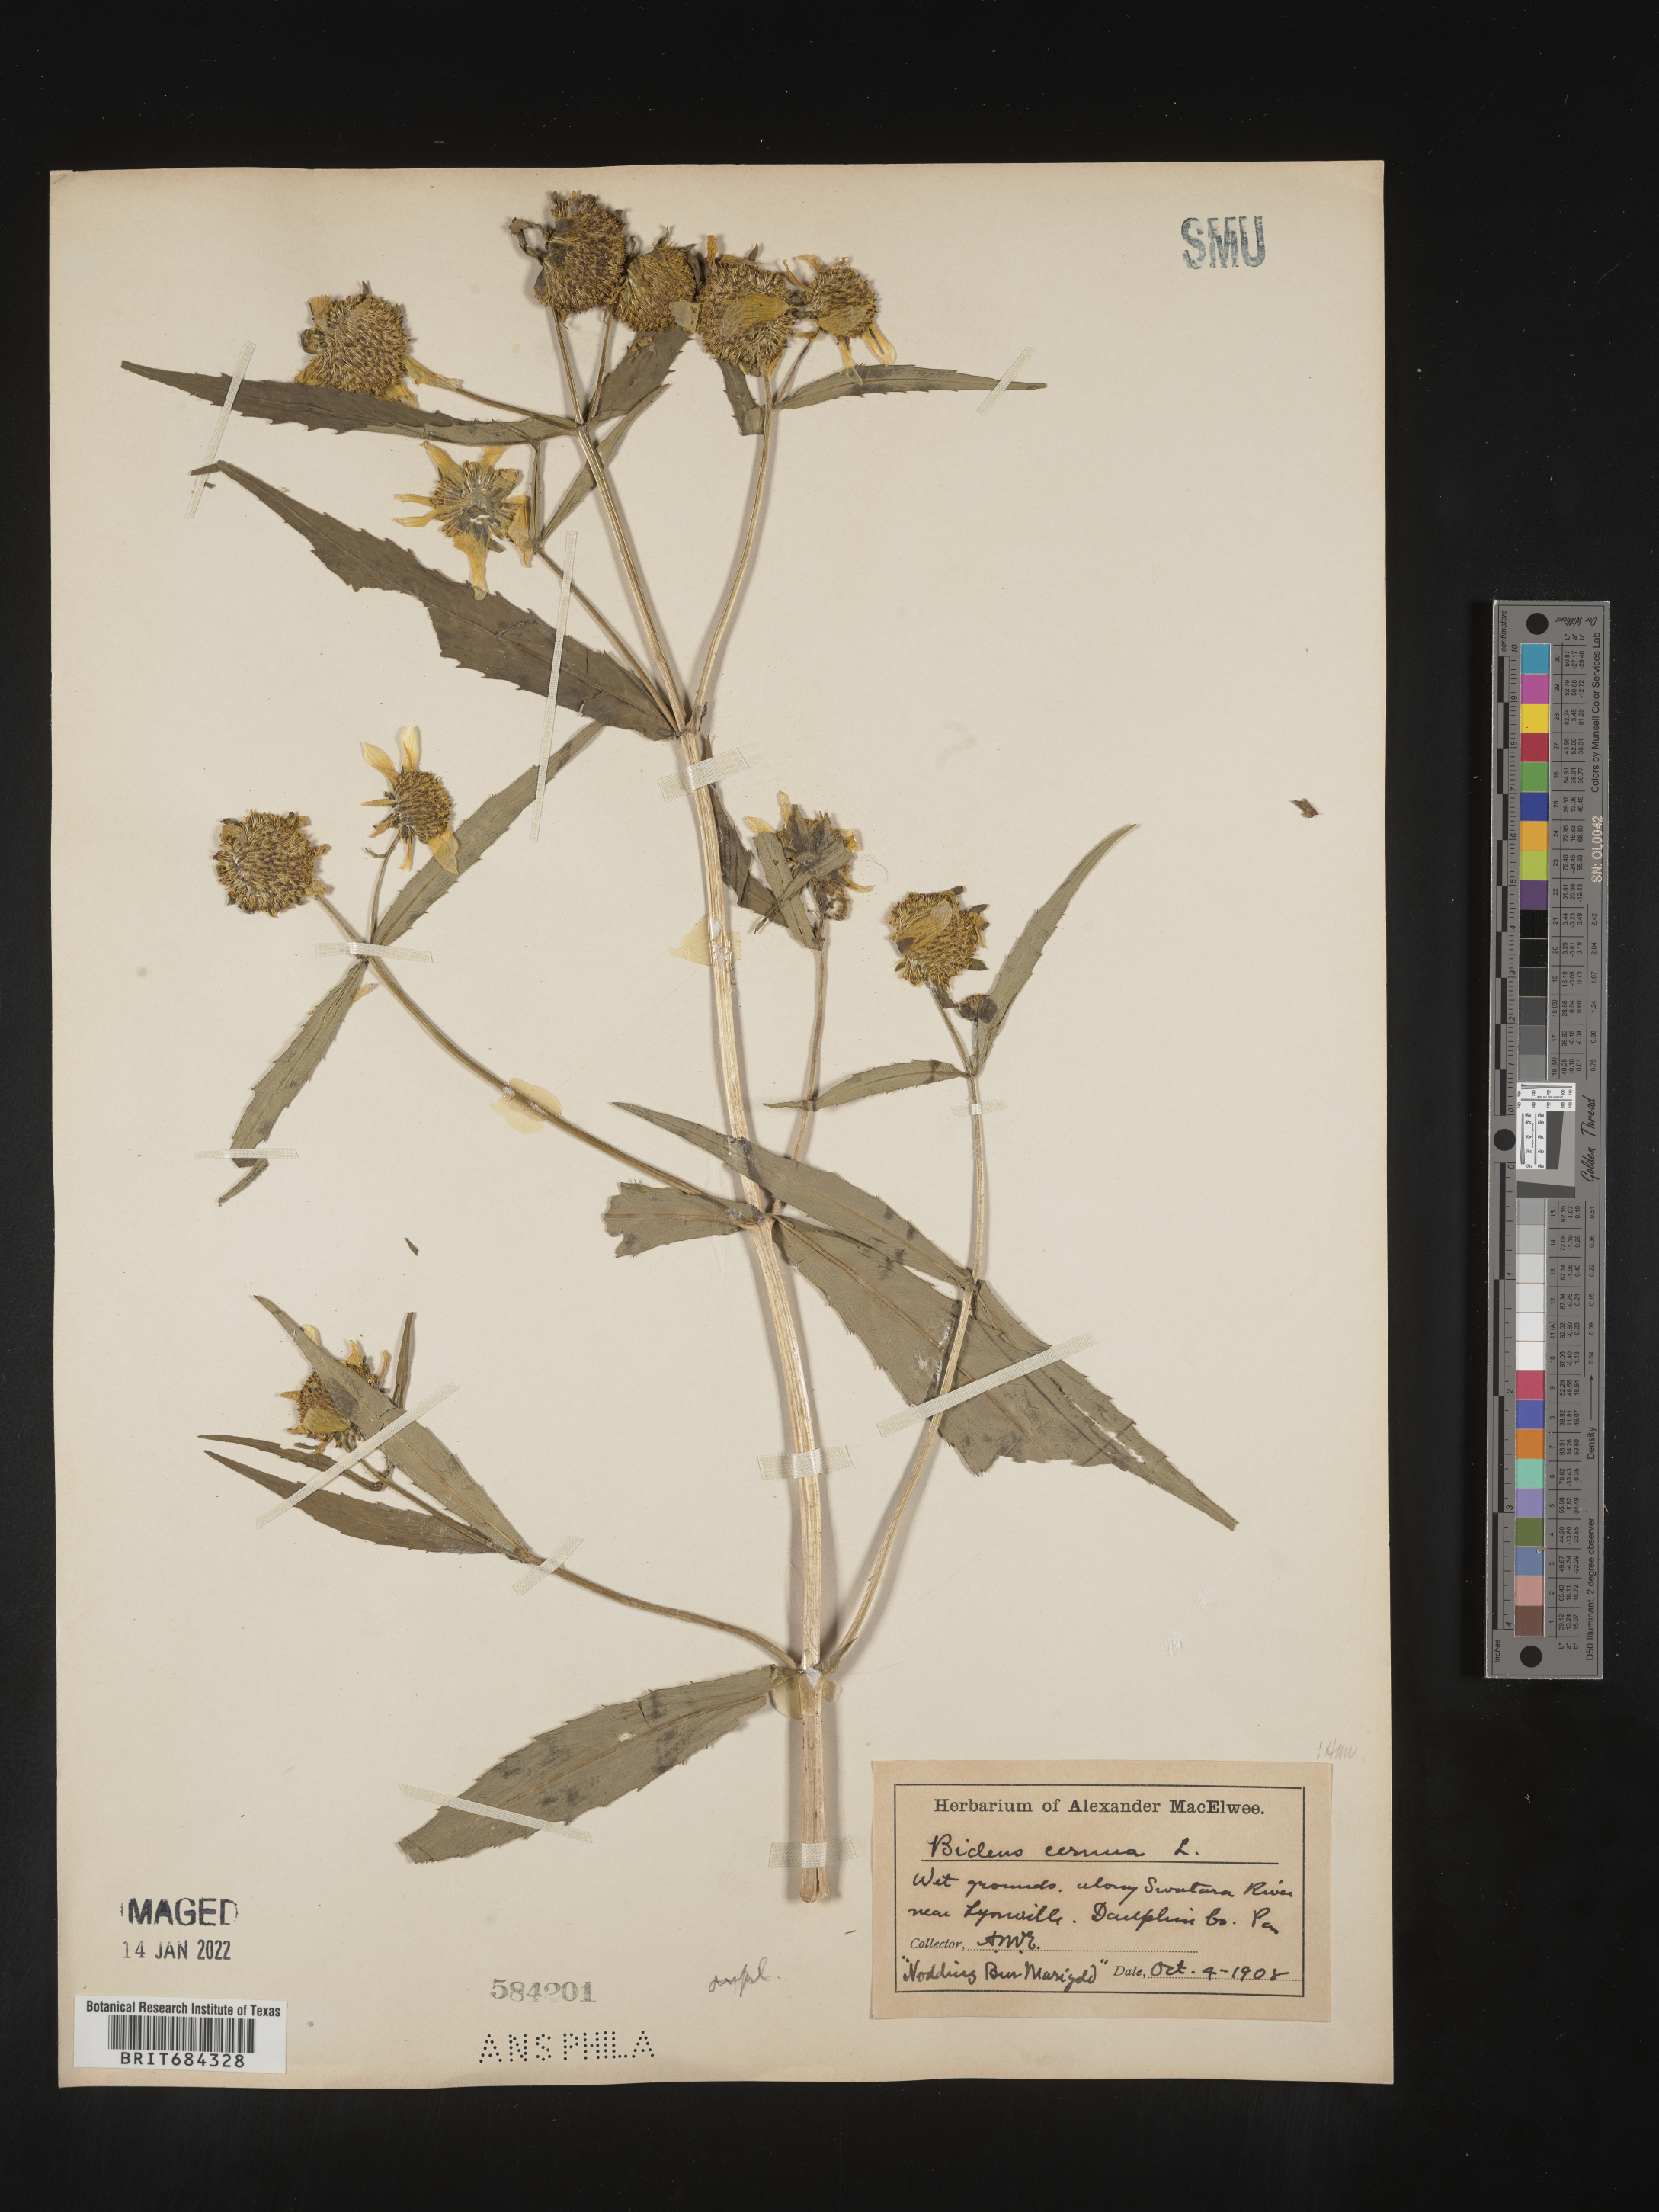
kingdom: Plantae
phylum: Tracheophyta
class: Magnoliopsida
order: Asterales
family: Asteraceae
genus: Bidens
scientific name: Bidens cernua
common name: Nodding bur-marigold
